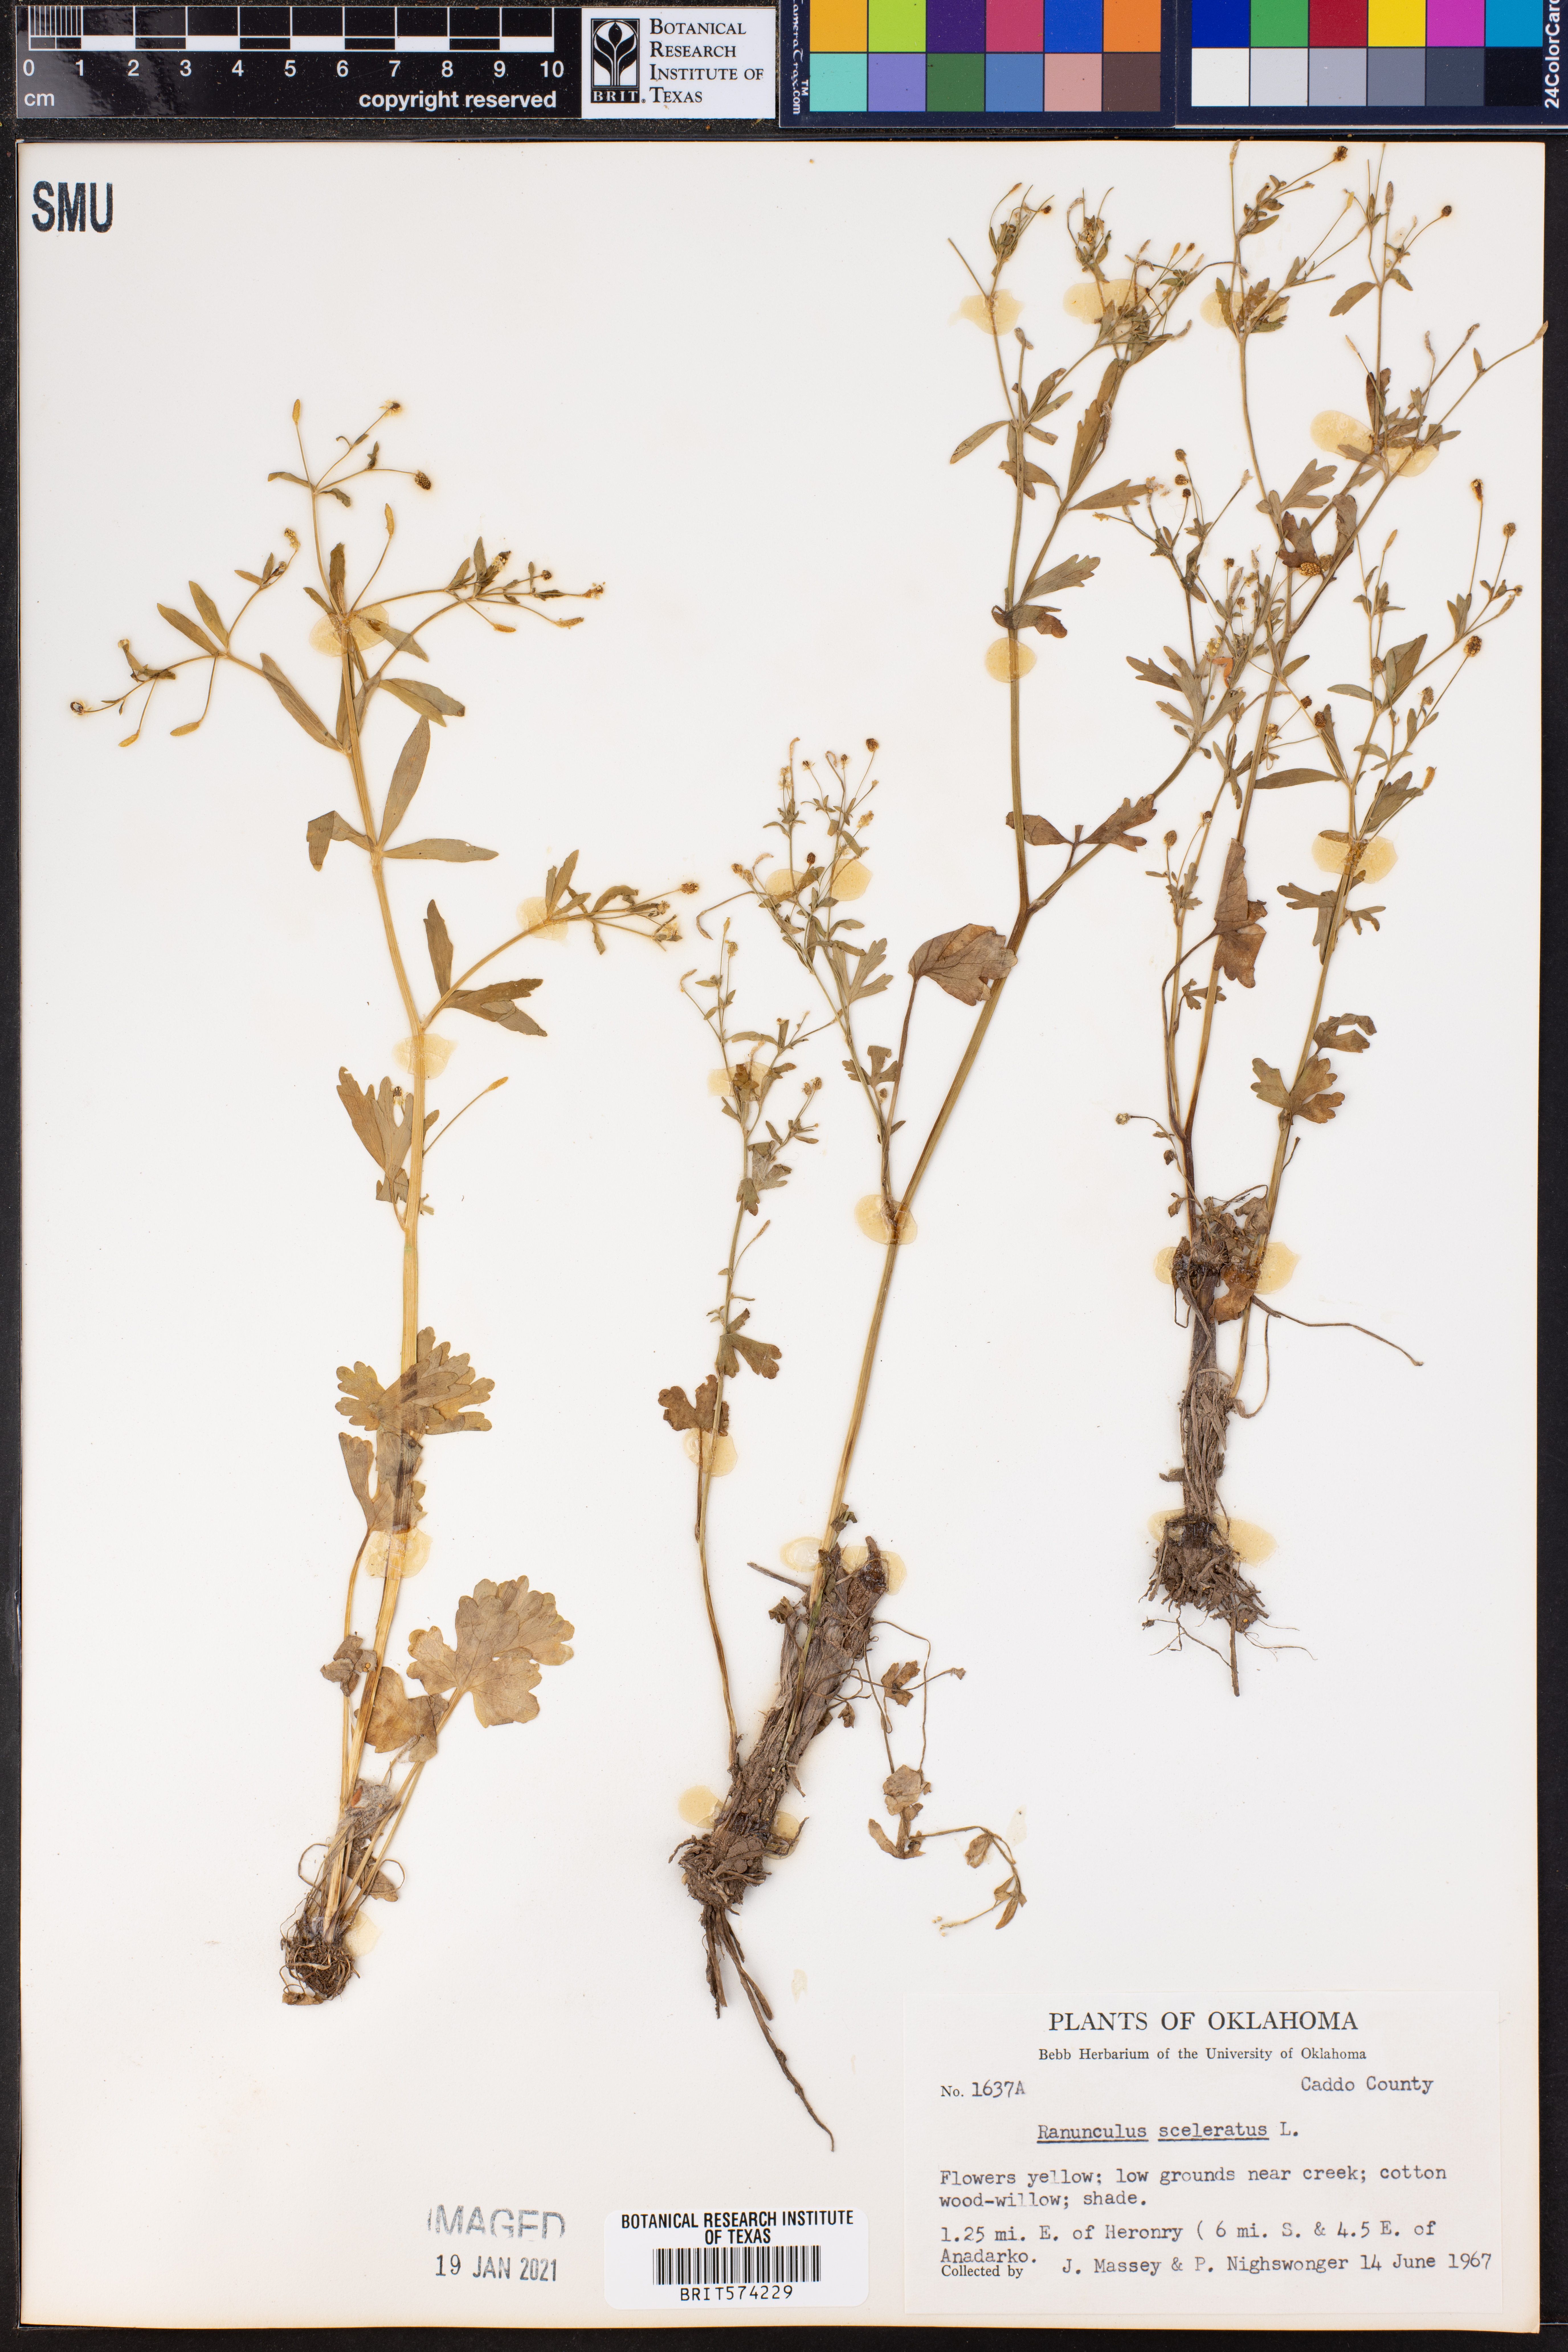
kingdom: Plantae
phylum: Tracheophyta
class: Magnoliopsida
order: Ranunculales
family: Ranunculaceae
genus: Ranunculus
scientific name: Ranunculus sceleratus
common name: Celery-leaved buttercup
